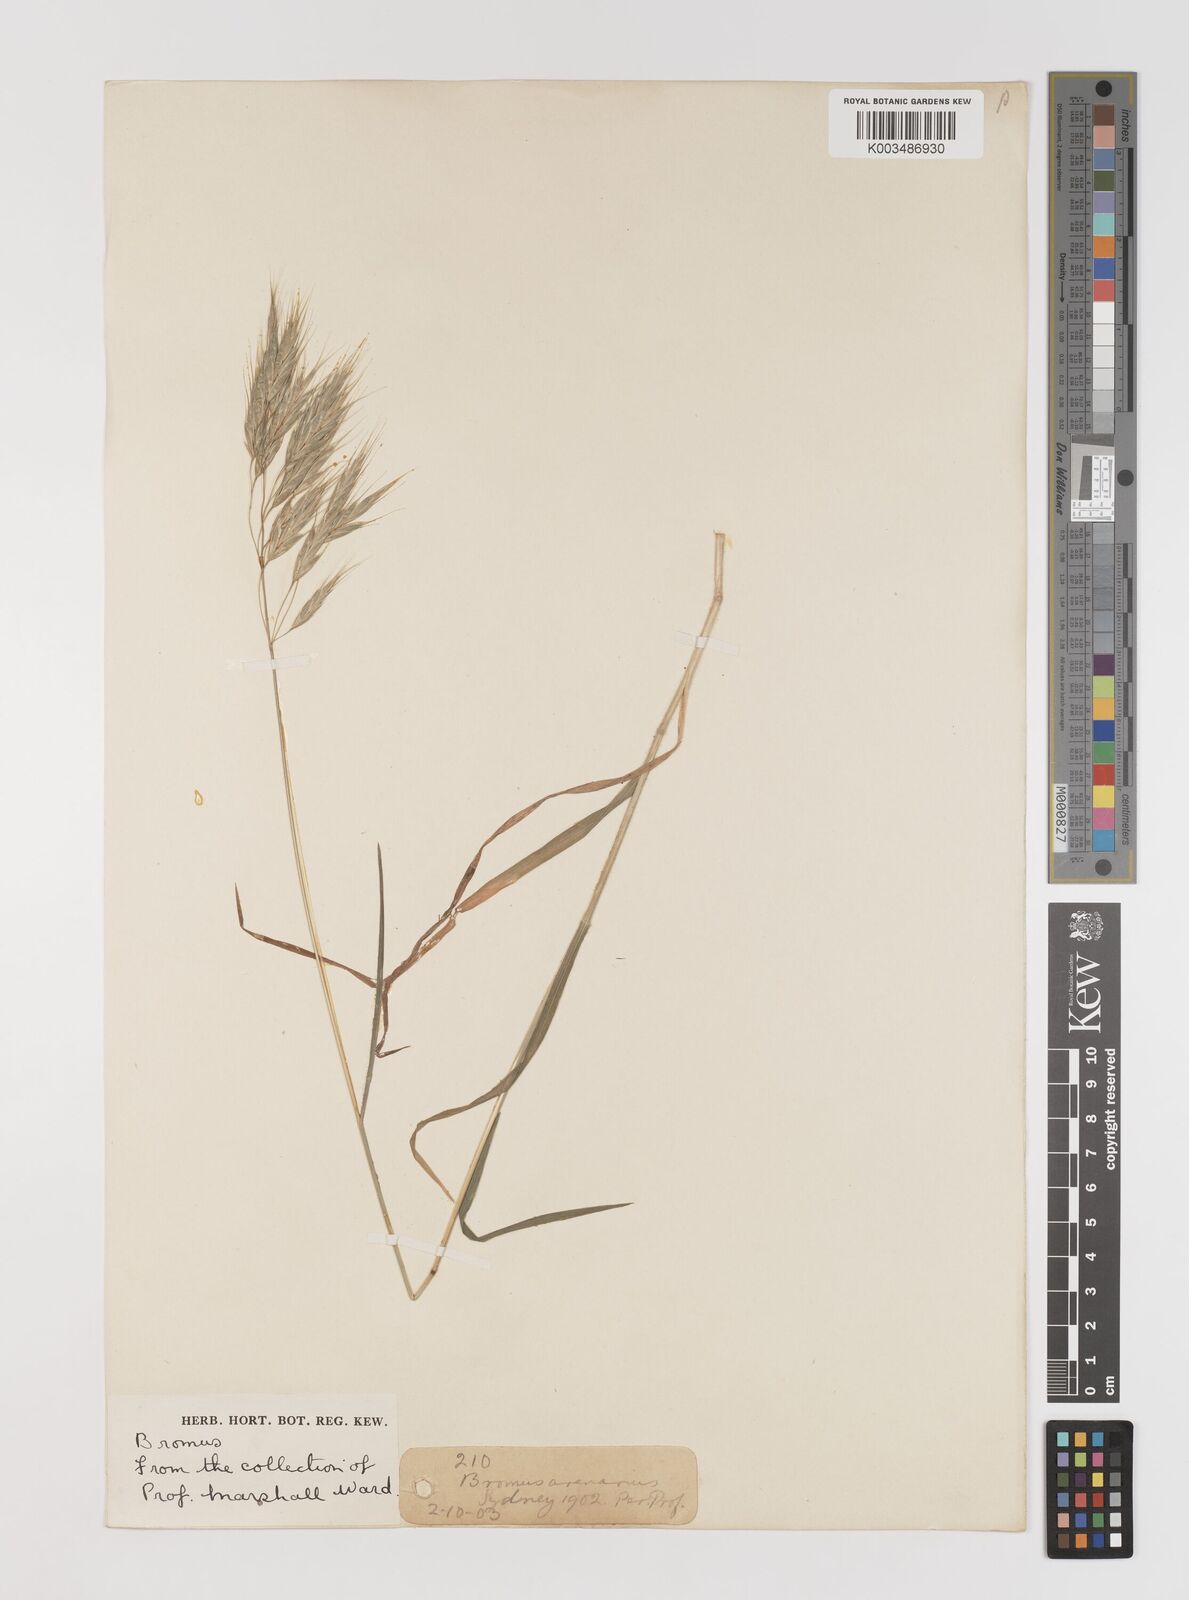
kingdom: Plantae
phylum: Tracheophyta
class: Liliopsida
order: Poales
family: Poaceae
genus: Bromus
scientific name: Bromus arenarius
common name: Australian brome
